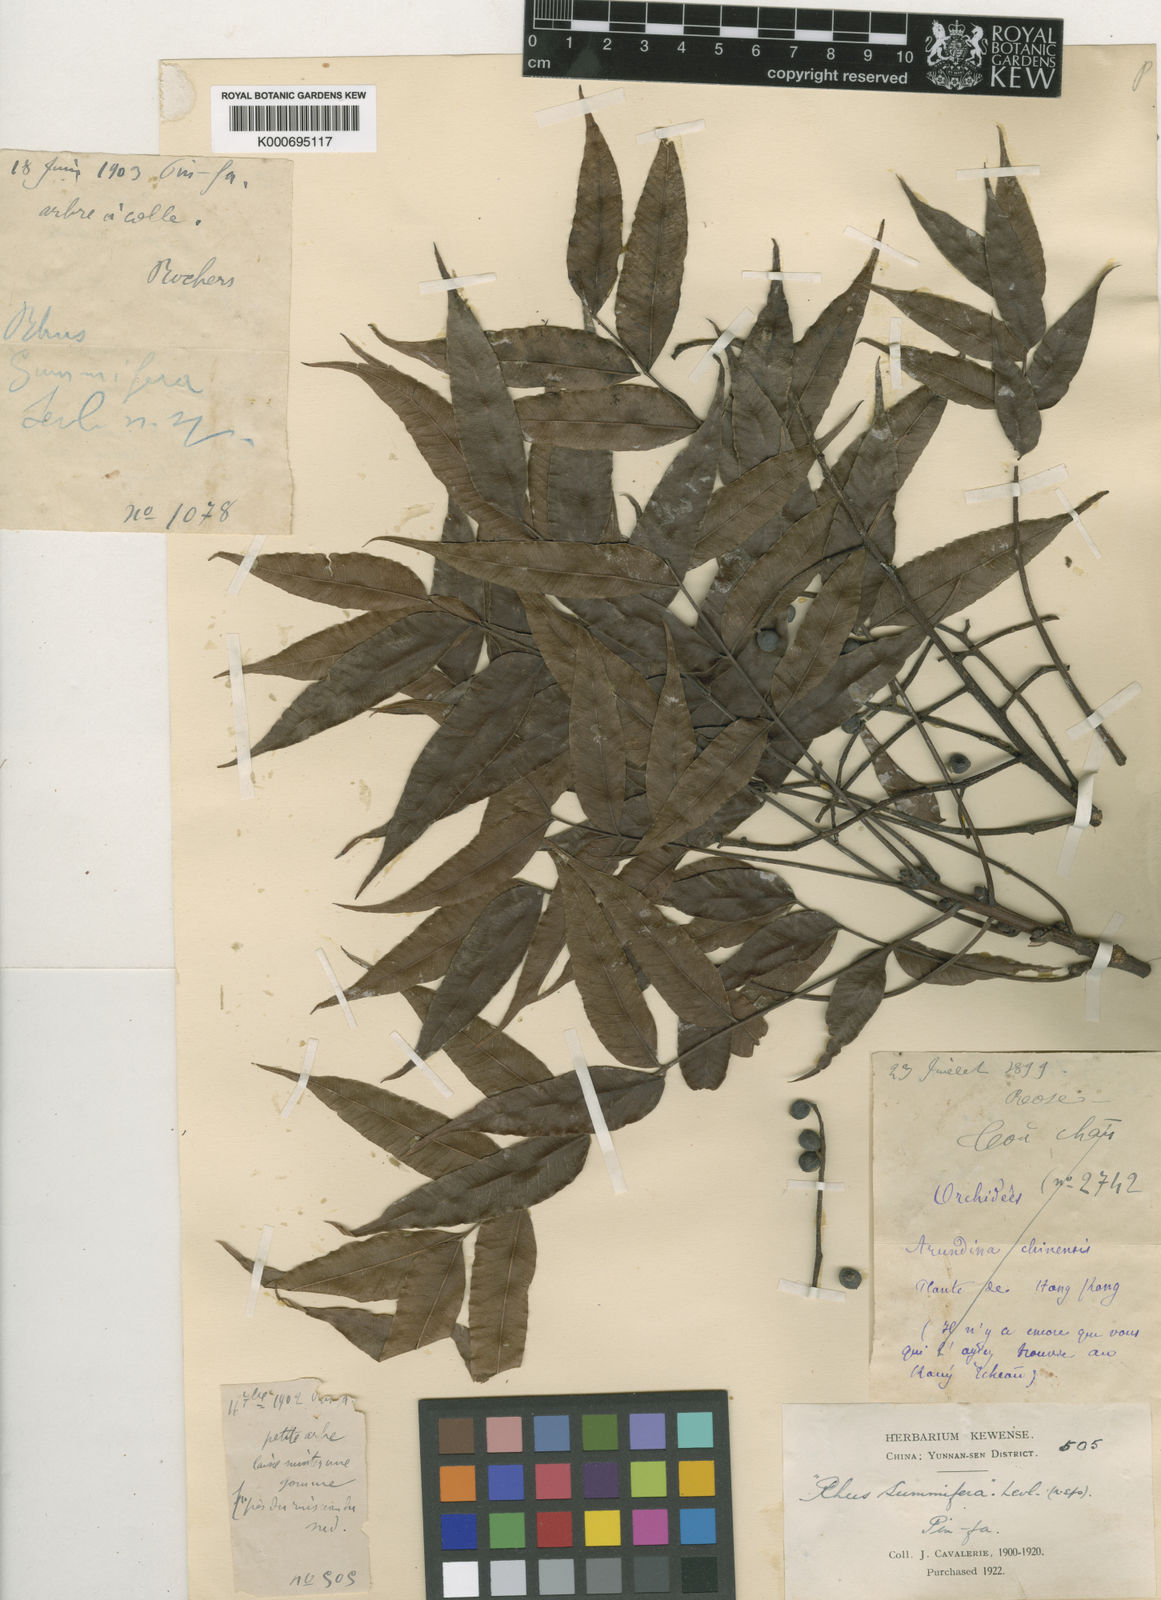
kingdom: Plantae
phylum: Tracheophyta
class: Magnoliopsida
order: Sapindales
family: Anacardiaceae
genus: Rhus
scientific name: Rhus
